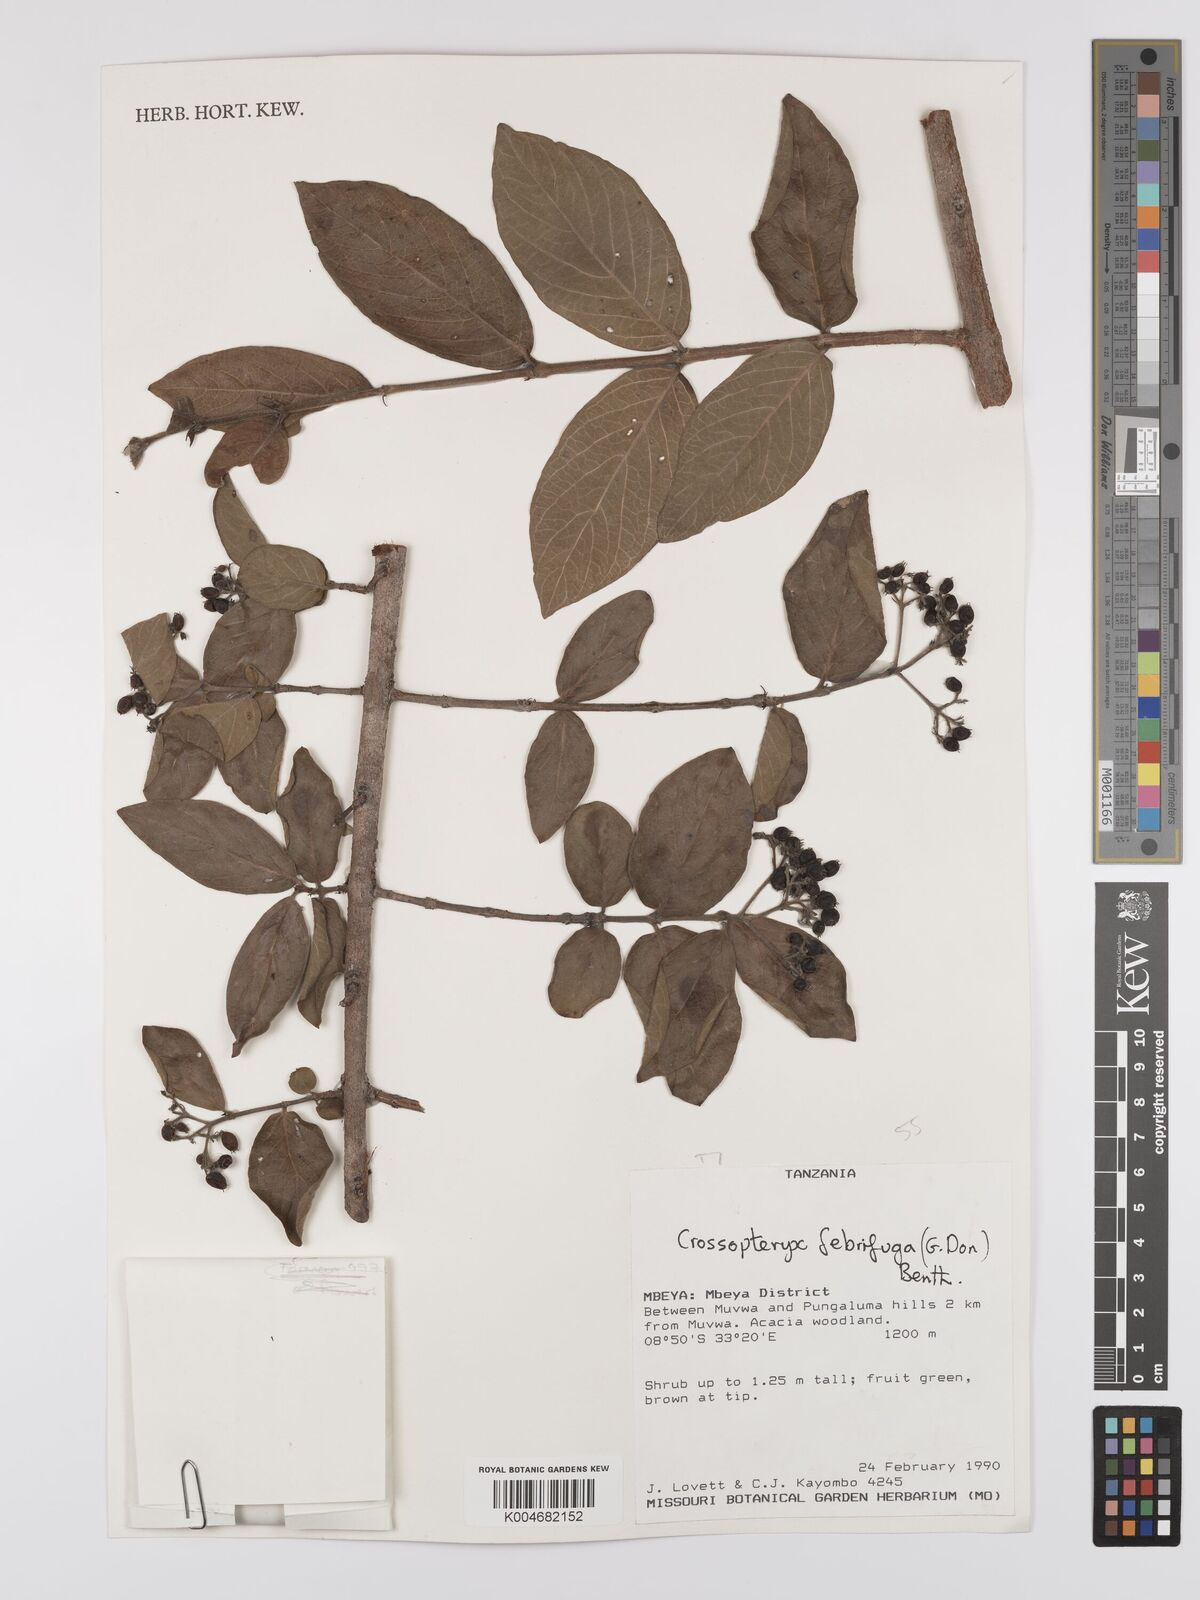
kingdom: Plantae
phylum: Tracheophyta
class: Magnoliopsida
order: Gentianales
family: Rubiaceae
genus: Crossopteryx
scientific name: Crossopteryx febrifuga
